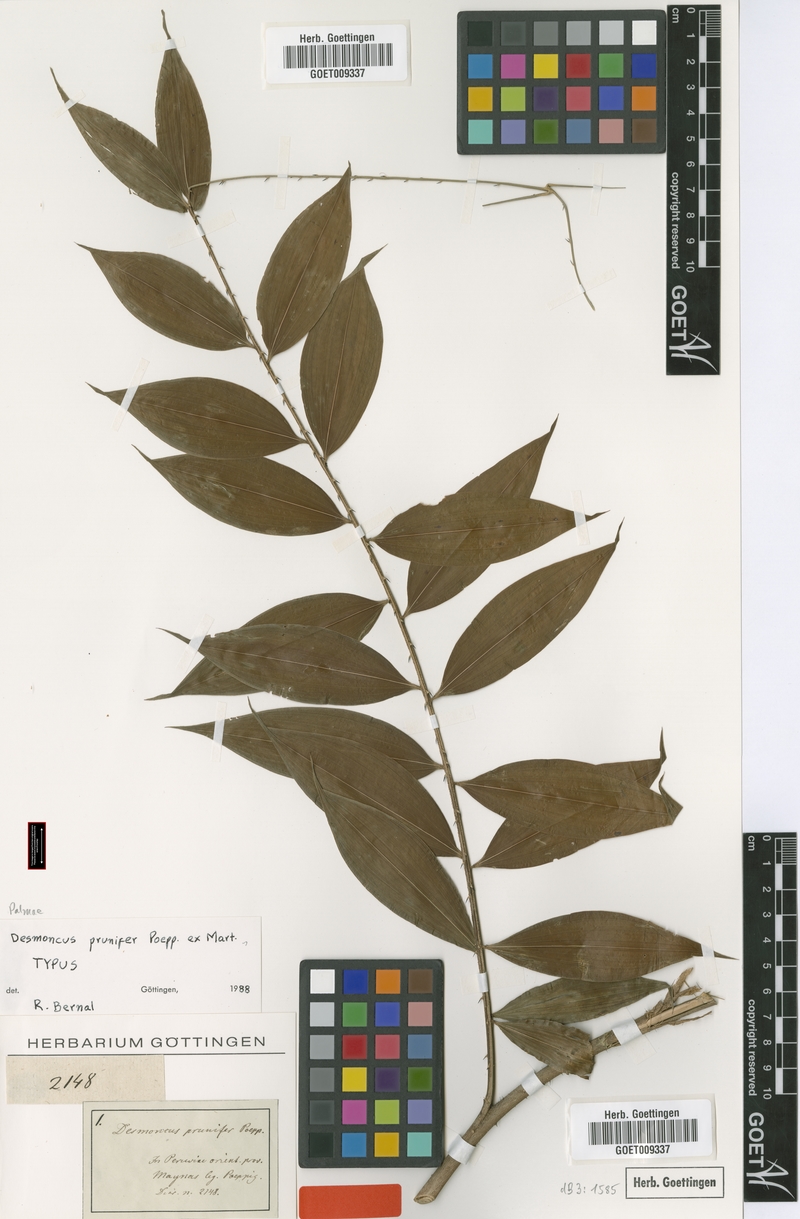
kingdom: Plantae
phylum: Tracheophyta
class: Liliopsida
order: Arecales
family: Arecaceae
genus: Desmoncus
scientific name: Desmoncus prunifer
